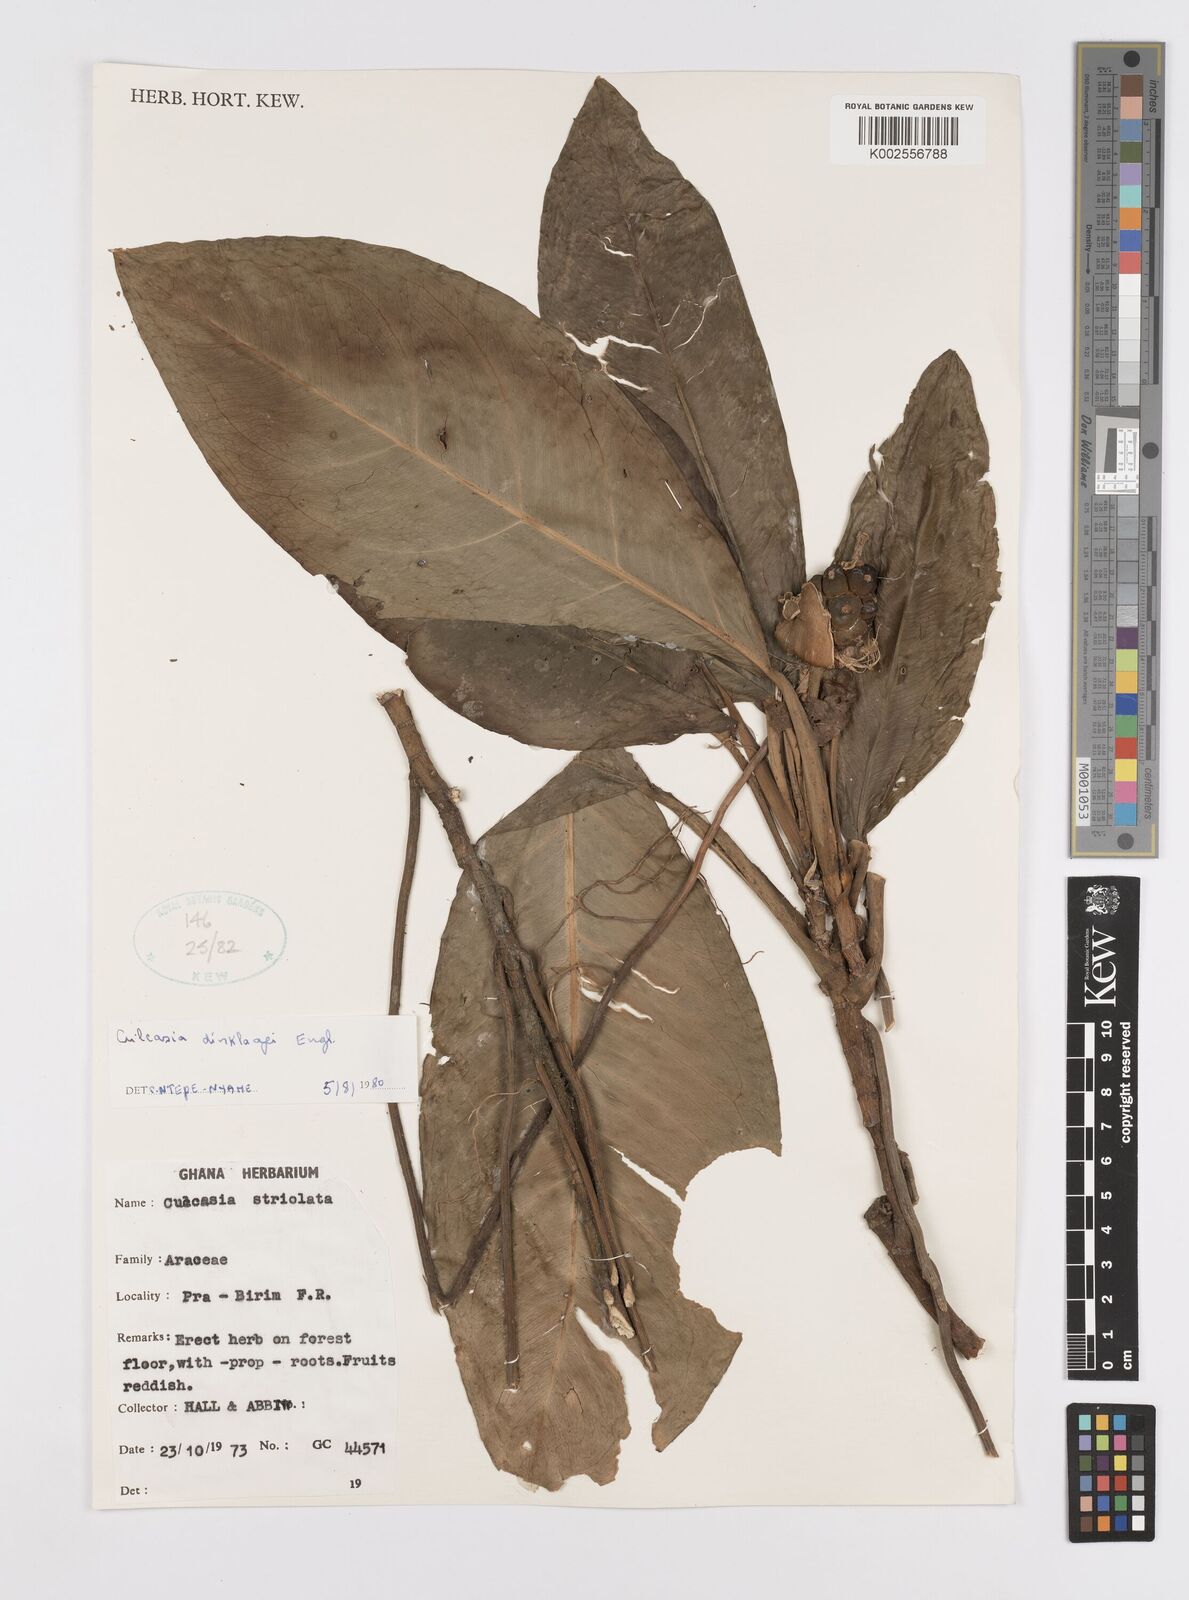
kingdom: Plantae
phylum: Tracheophyta
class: Liliopsida
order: Alismatales
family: Araceae
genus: Culcasia
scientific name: Culcasia dinklagei
